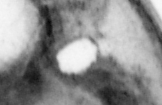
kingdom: Animalia
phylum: Chordata
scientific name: Chordata
